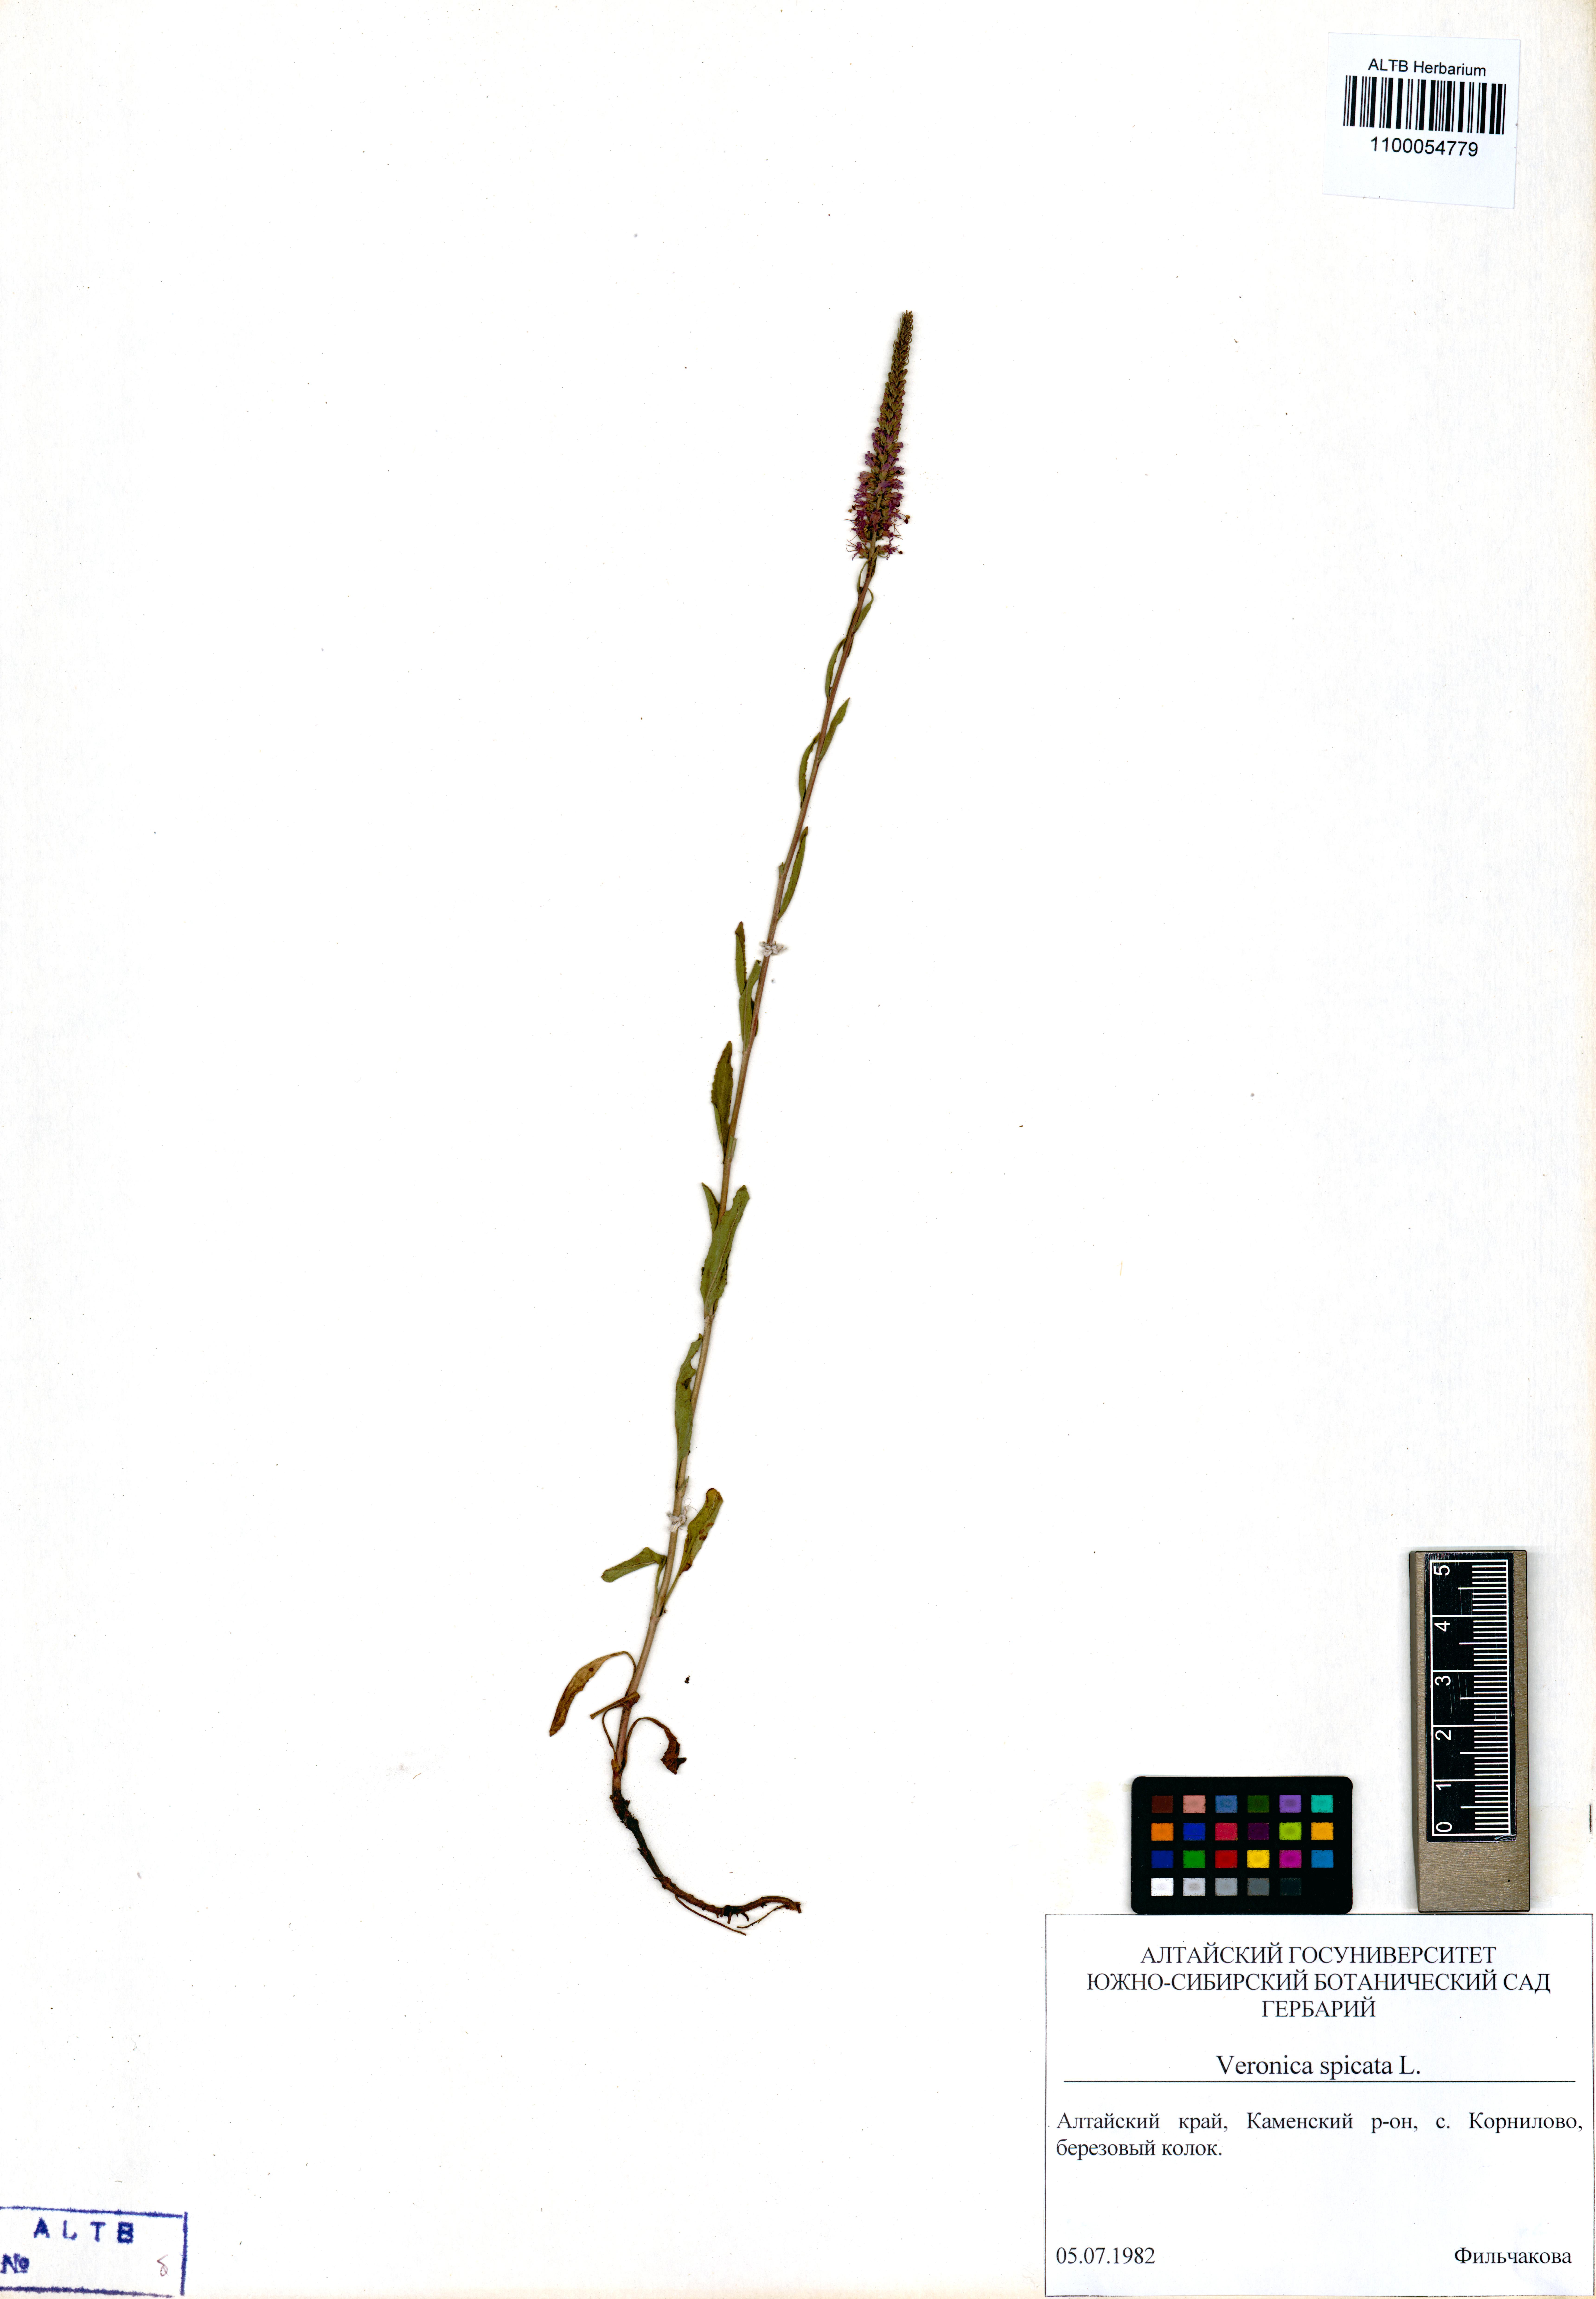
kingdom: Plantae
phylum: Tracheophyta
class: Magnoliopsida
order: Lamiales
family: Plantaginaceae
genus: Veronica
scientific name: Veronica spicata
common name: Spiked speedwell
